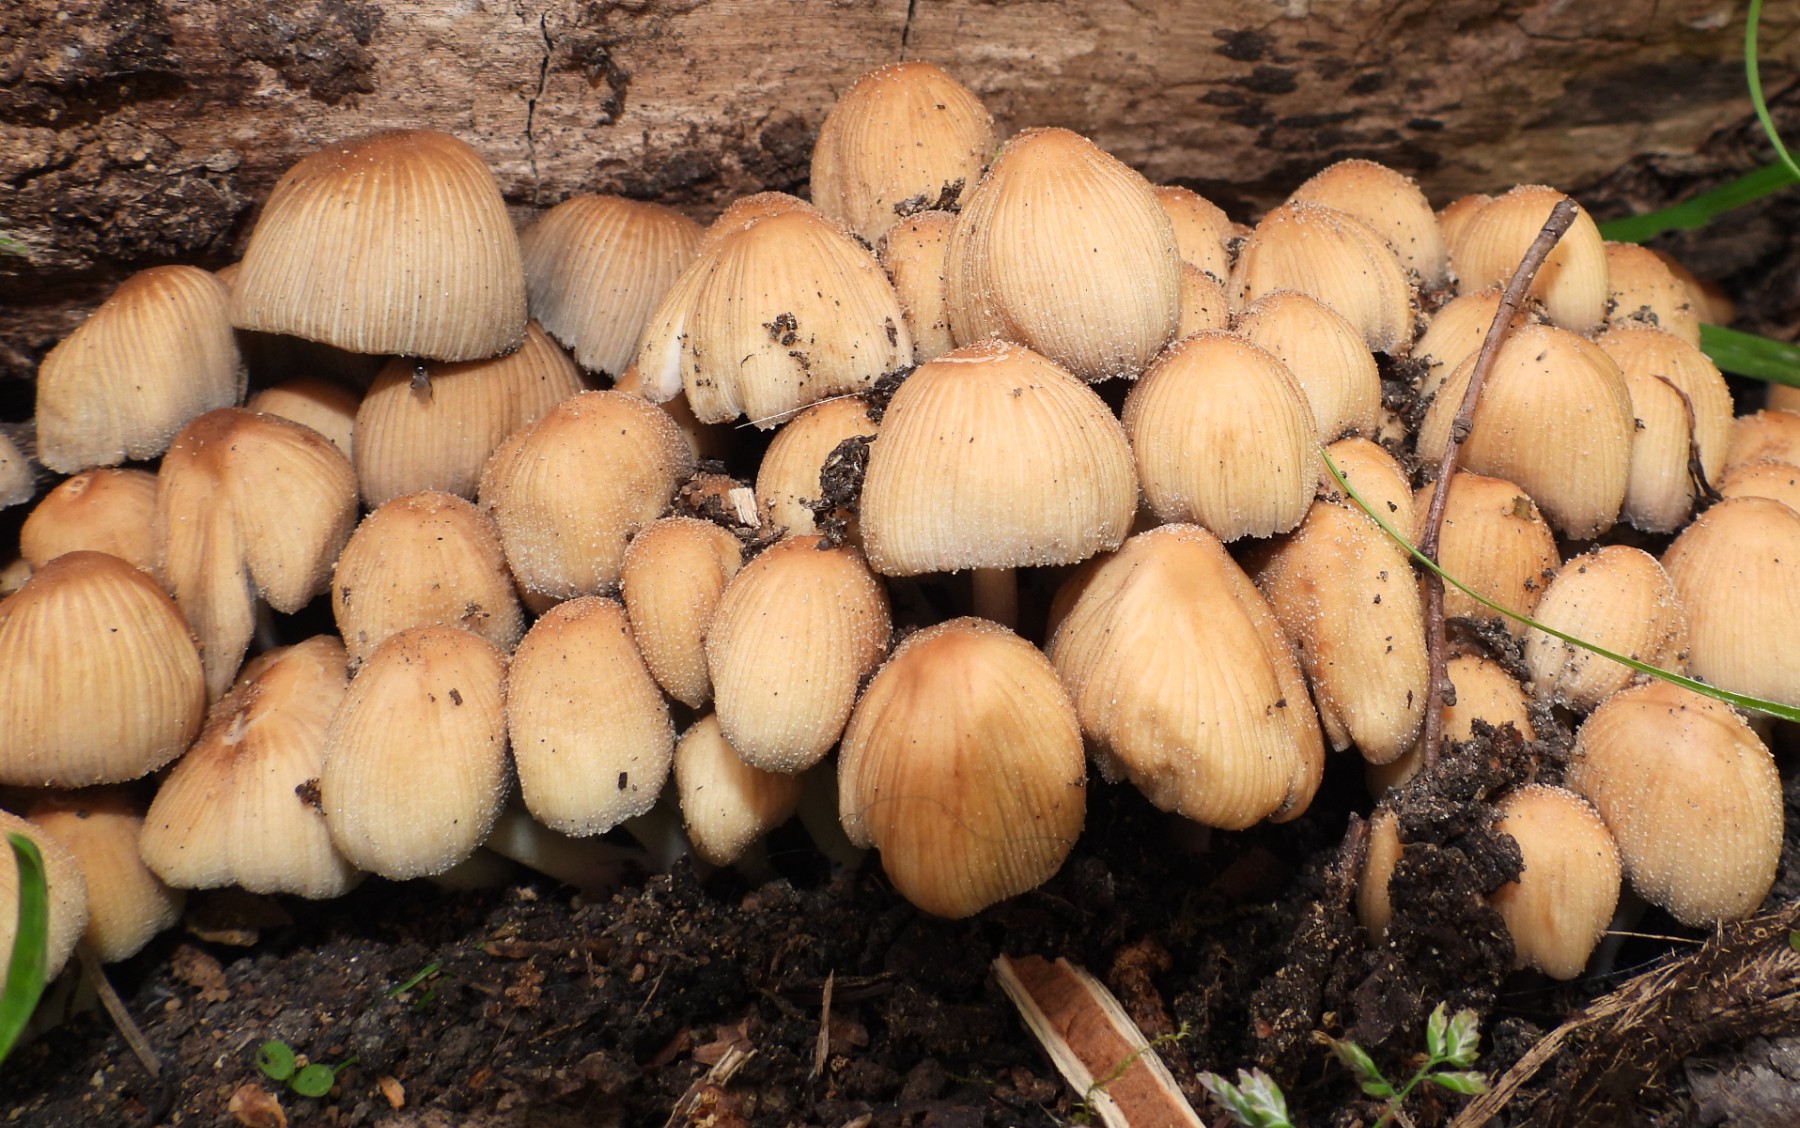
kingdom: Fungi
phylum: Basidiomycota
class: Agaricomycetes
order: Agaricales
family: Psathyrellaceae
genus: Coprinellus
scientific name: Coprinellus micaceus
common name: glimmer-blækhat
